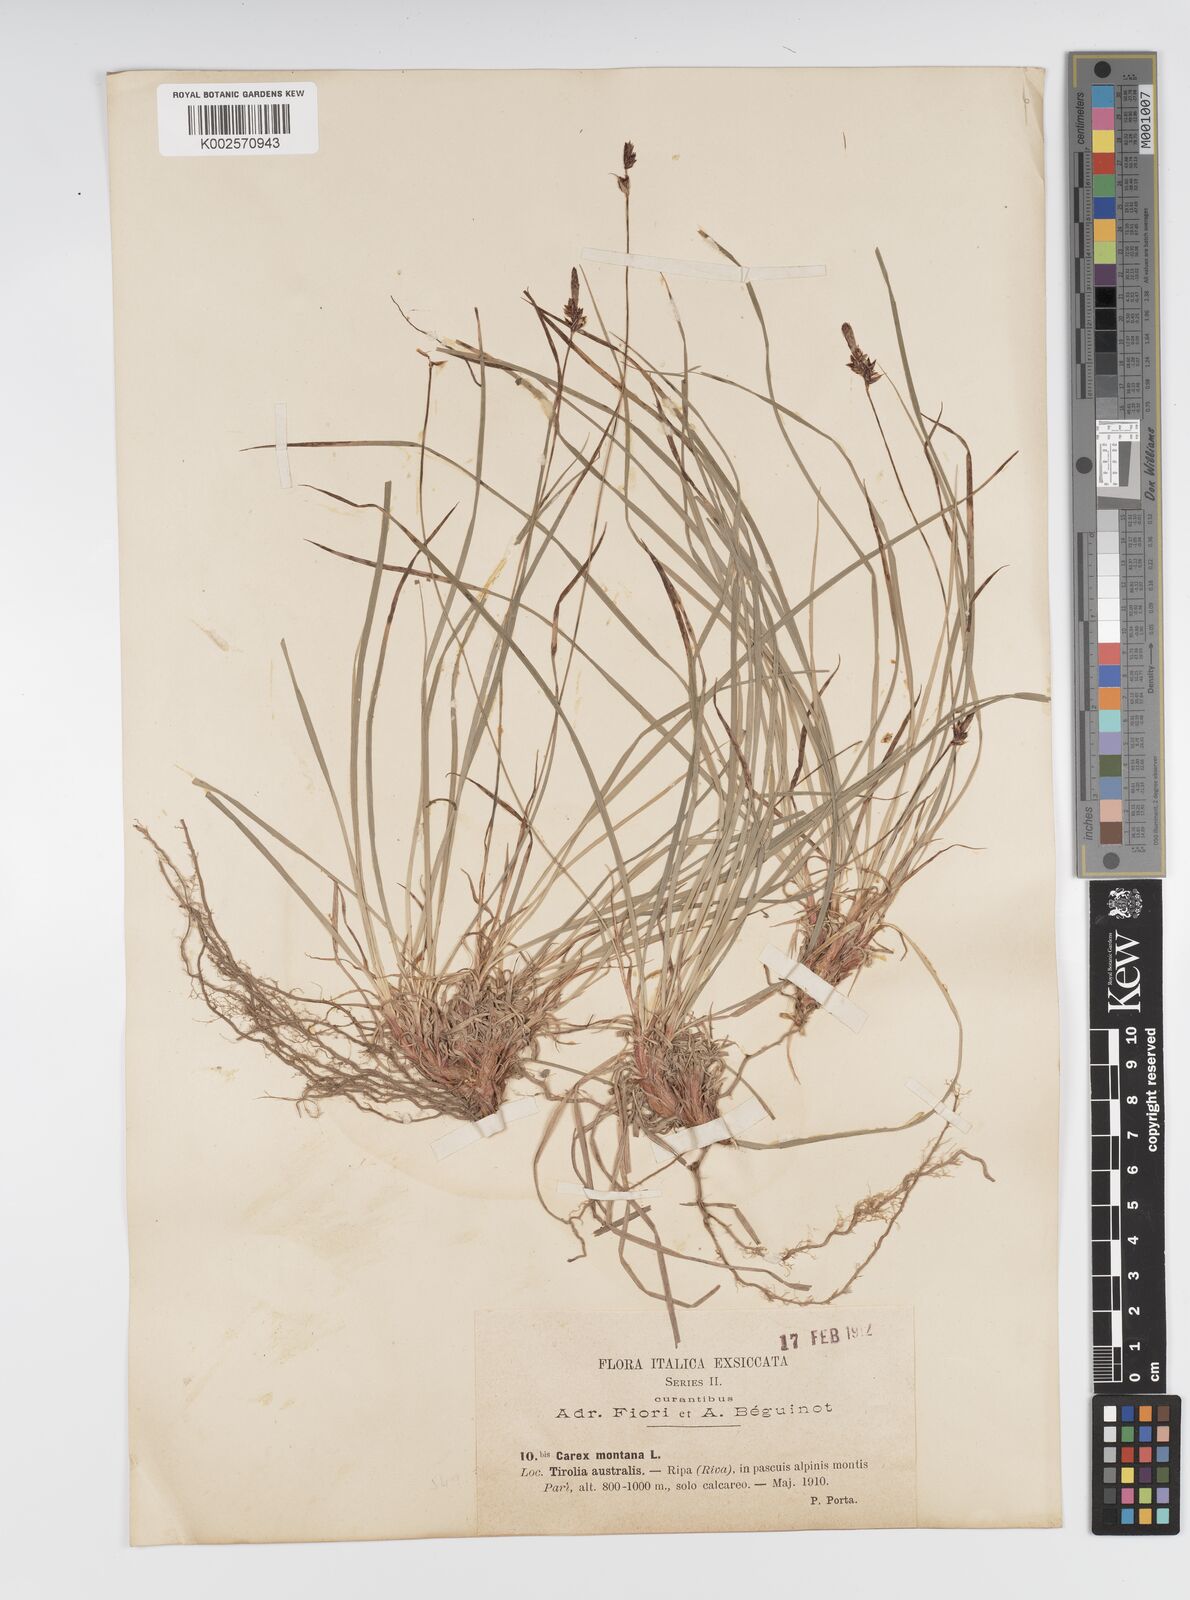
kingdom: Plantae
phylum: Tracheophyta
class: Liliopsida
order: Poales
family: Cyperaceae
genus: Carex
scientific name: Carex montana
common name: Soft-leaved sedge
